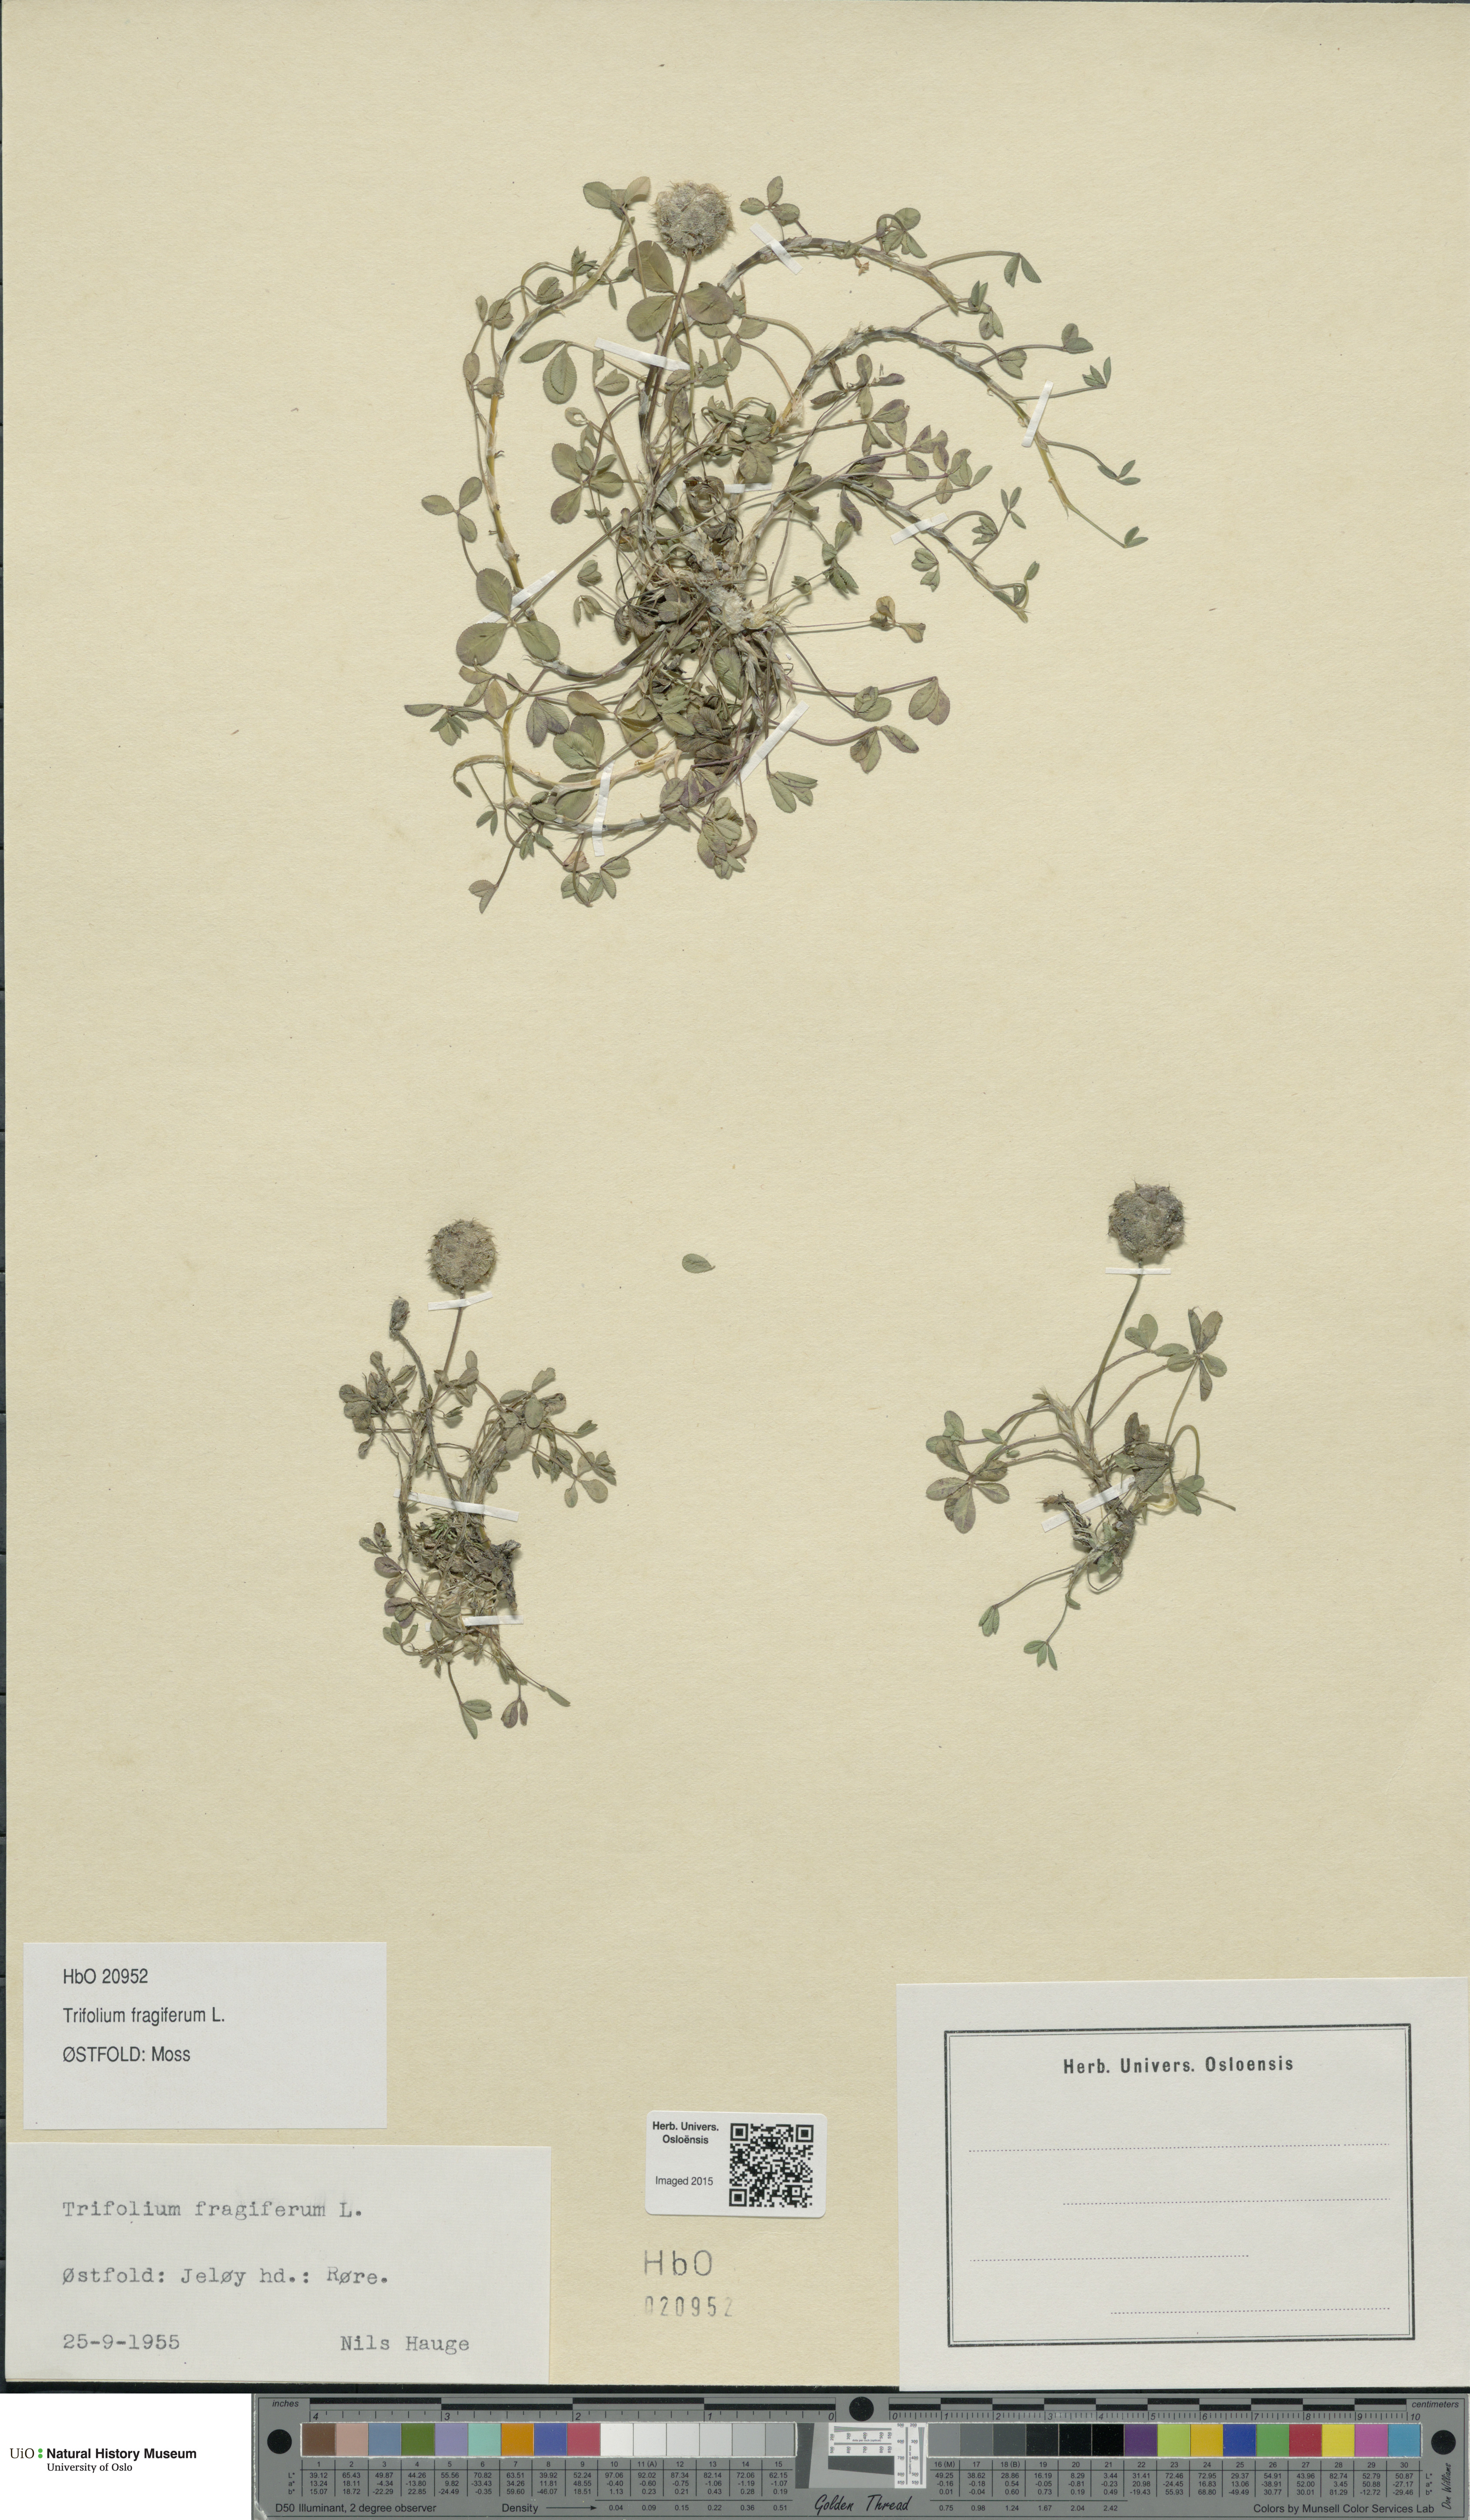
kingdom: Plantae
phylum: Tracheophyta
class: Magnoliopsida
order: Fabales
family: Fabaceae
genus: Trifolium
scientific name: Trifolium fragiferum
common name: Strawberry clover
